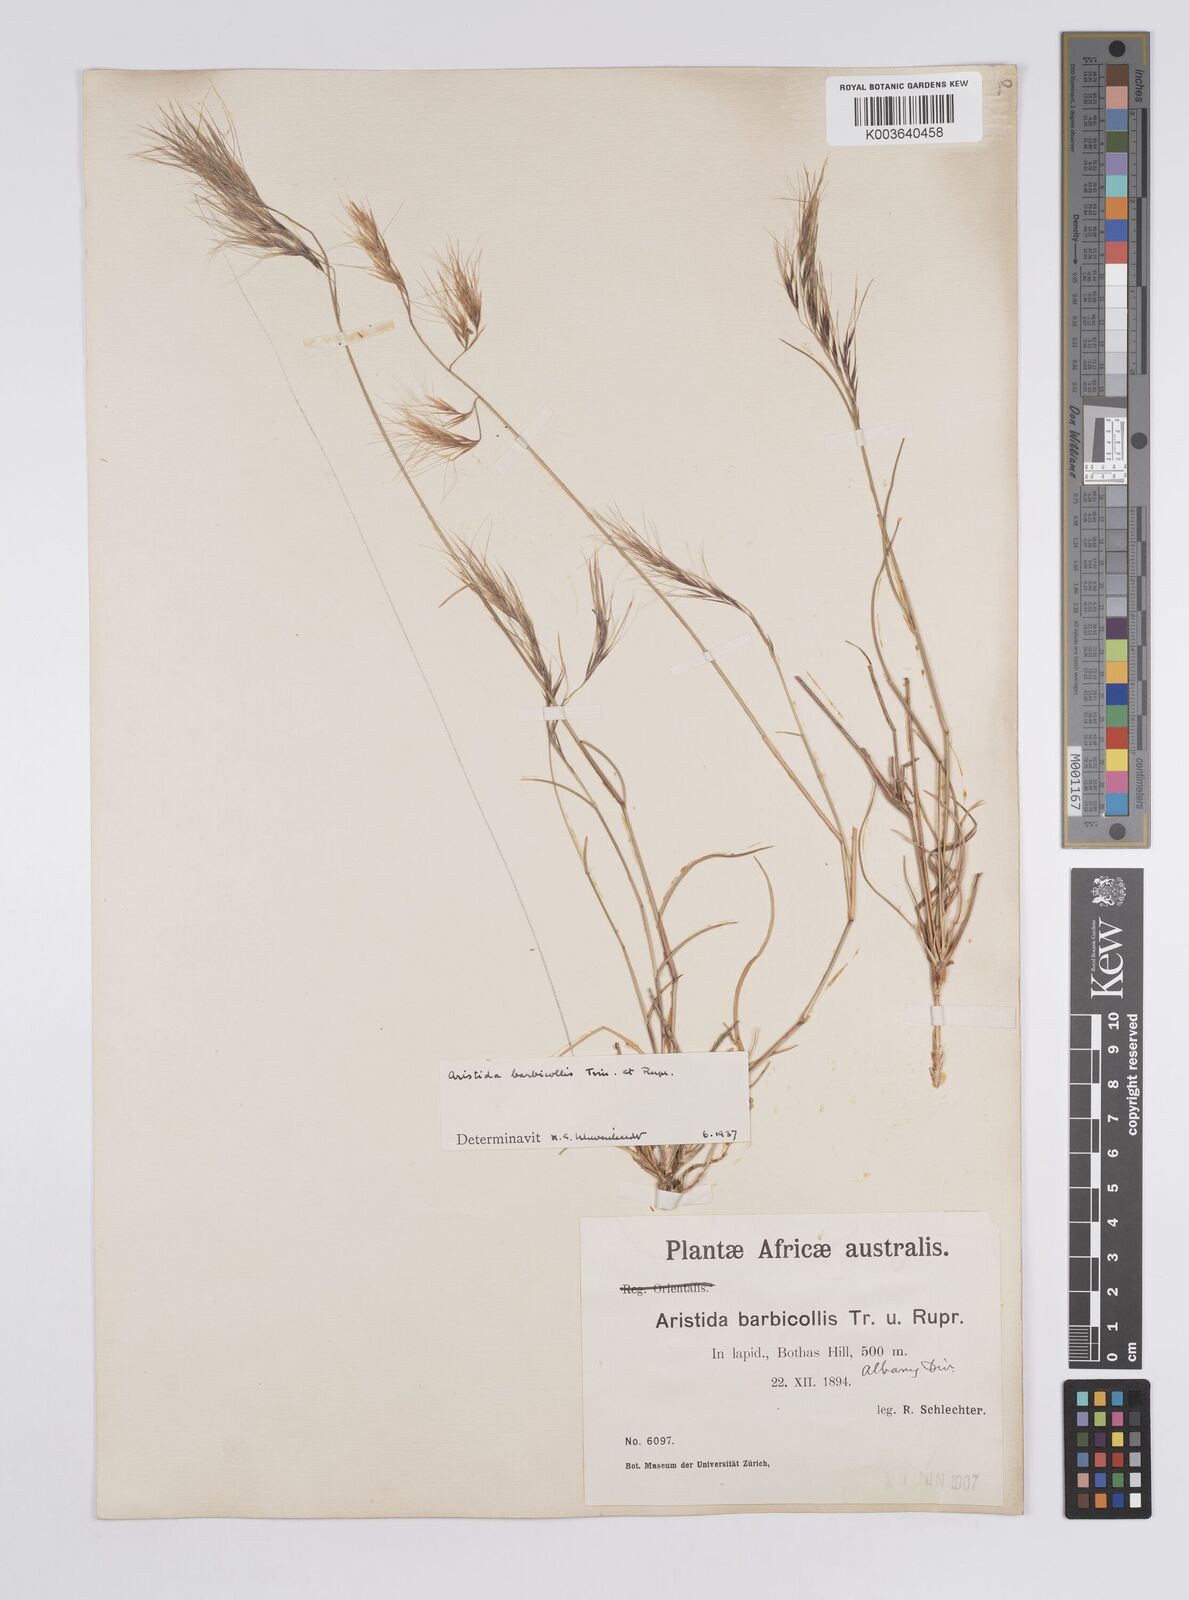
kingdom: Plantae
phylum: Tracheophyta
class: Liliopsida
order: Poales
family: Poaceae
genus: Aristida
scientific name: Aristida barbicollis
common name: Spreading prickle grass
